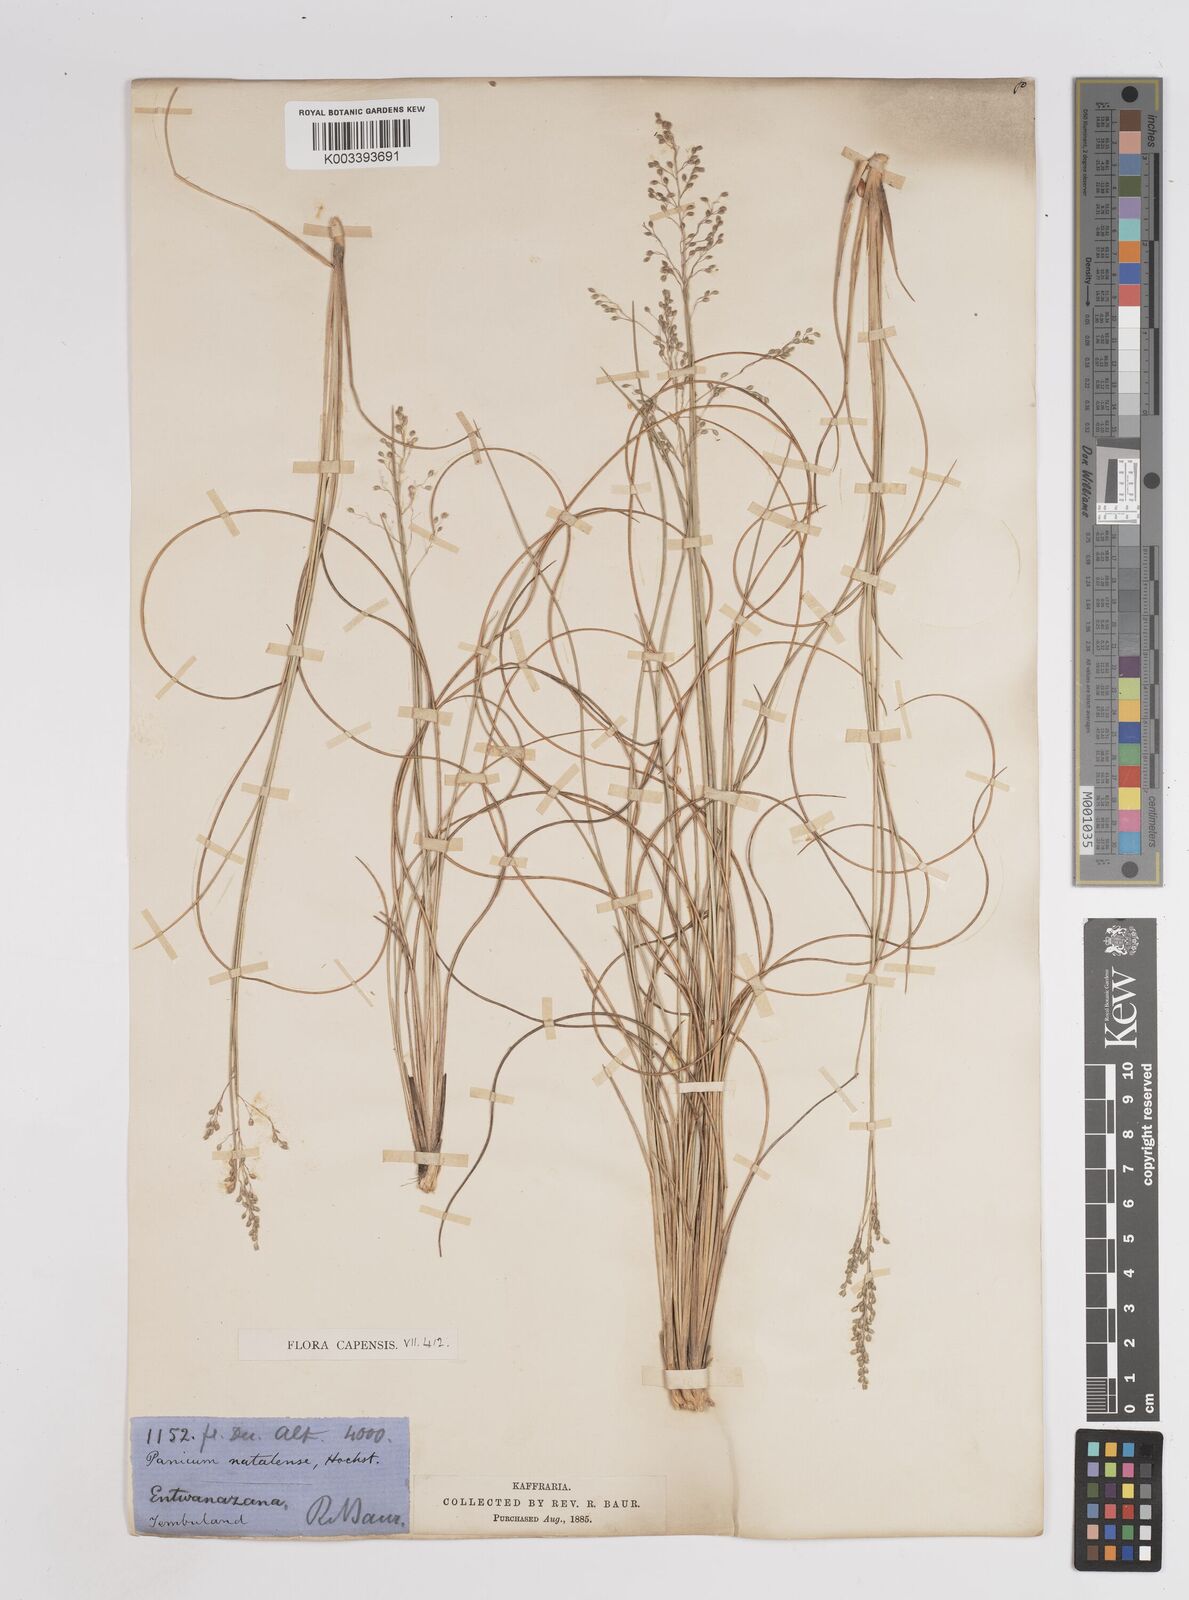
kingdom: Plantae
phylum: Tracheophyta
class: Liliopsida
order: Poales
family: Poaceae
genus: Trichanthecium
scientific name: Trichanthecium natalense
